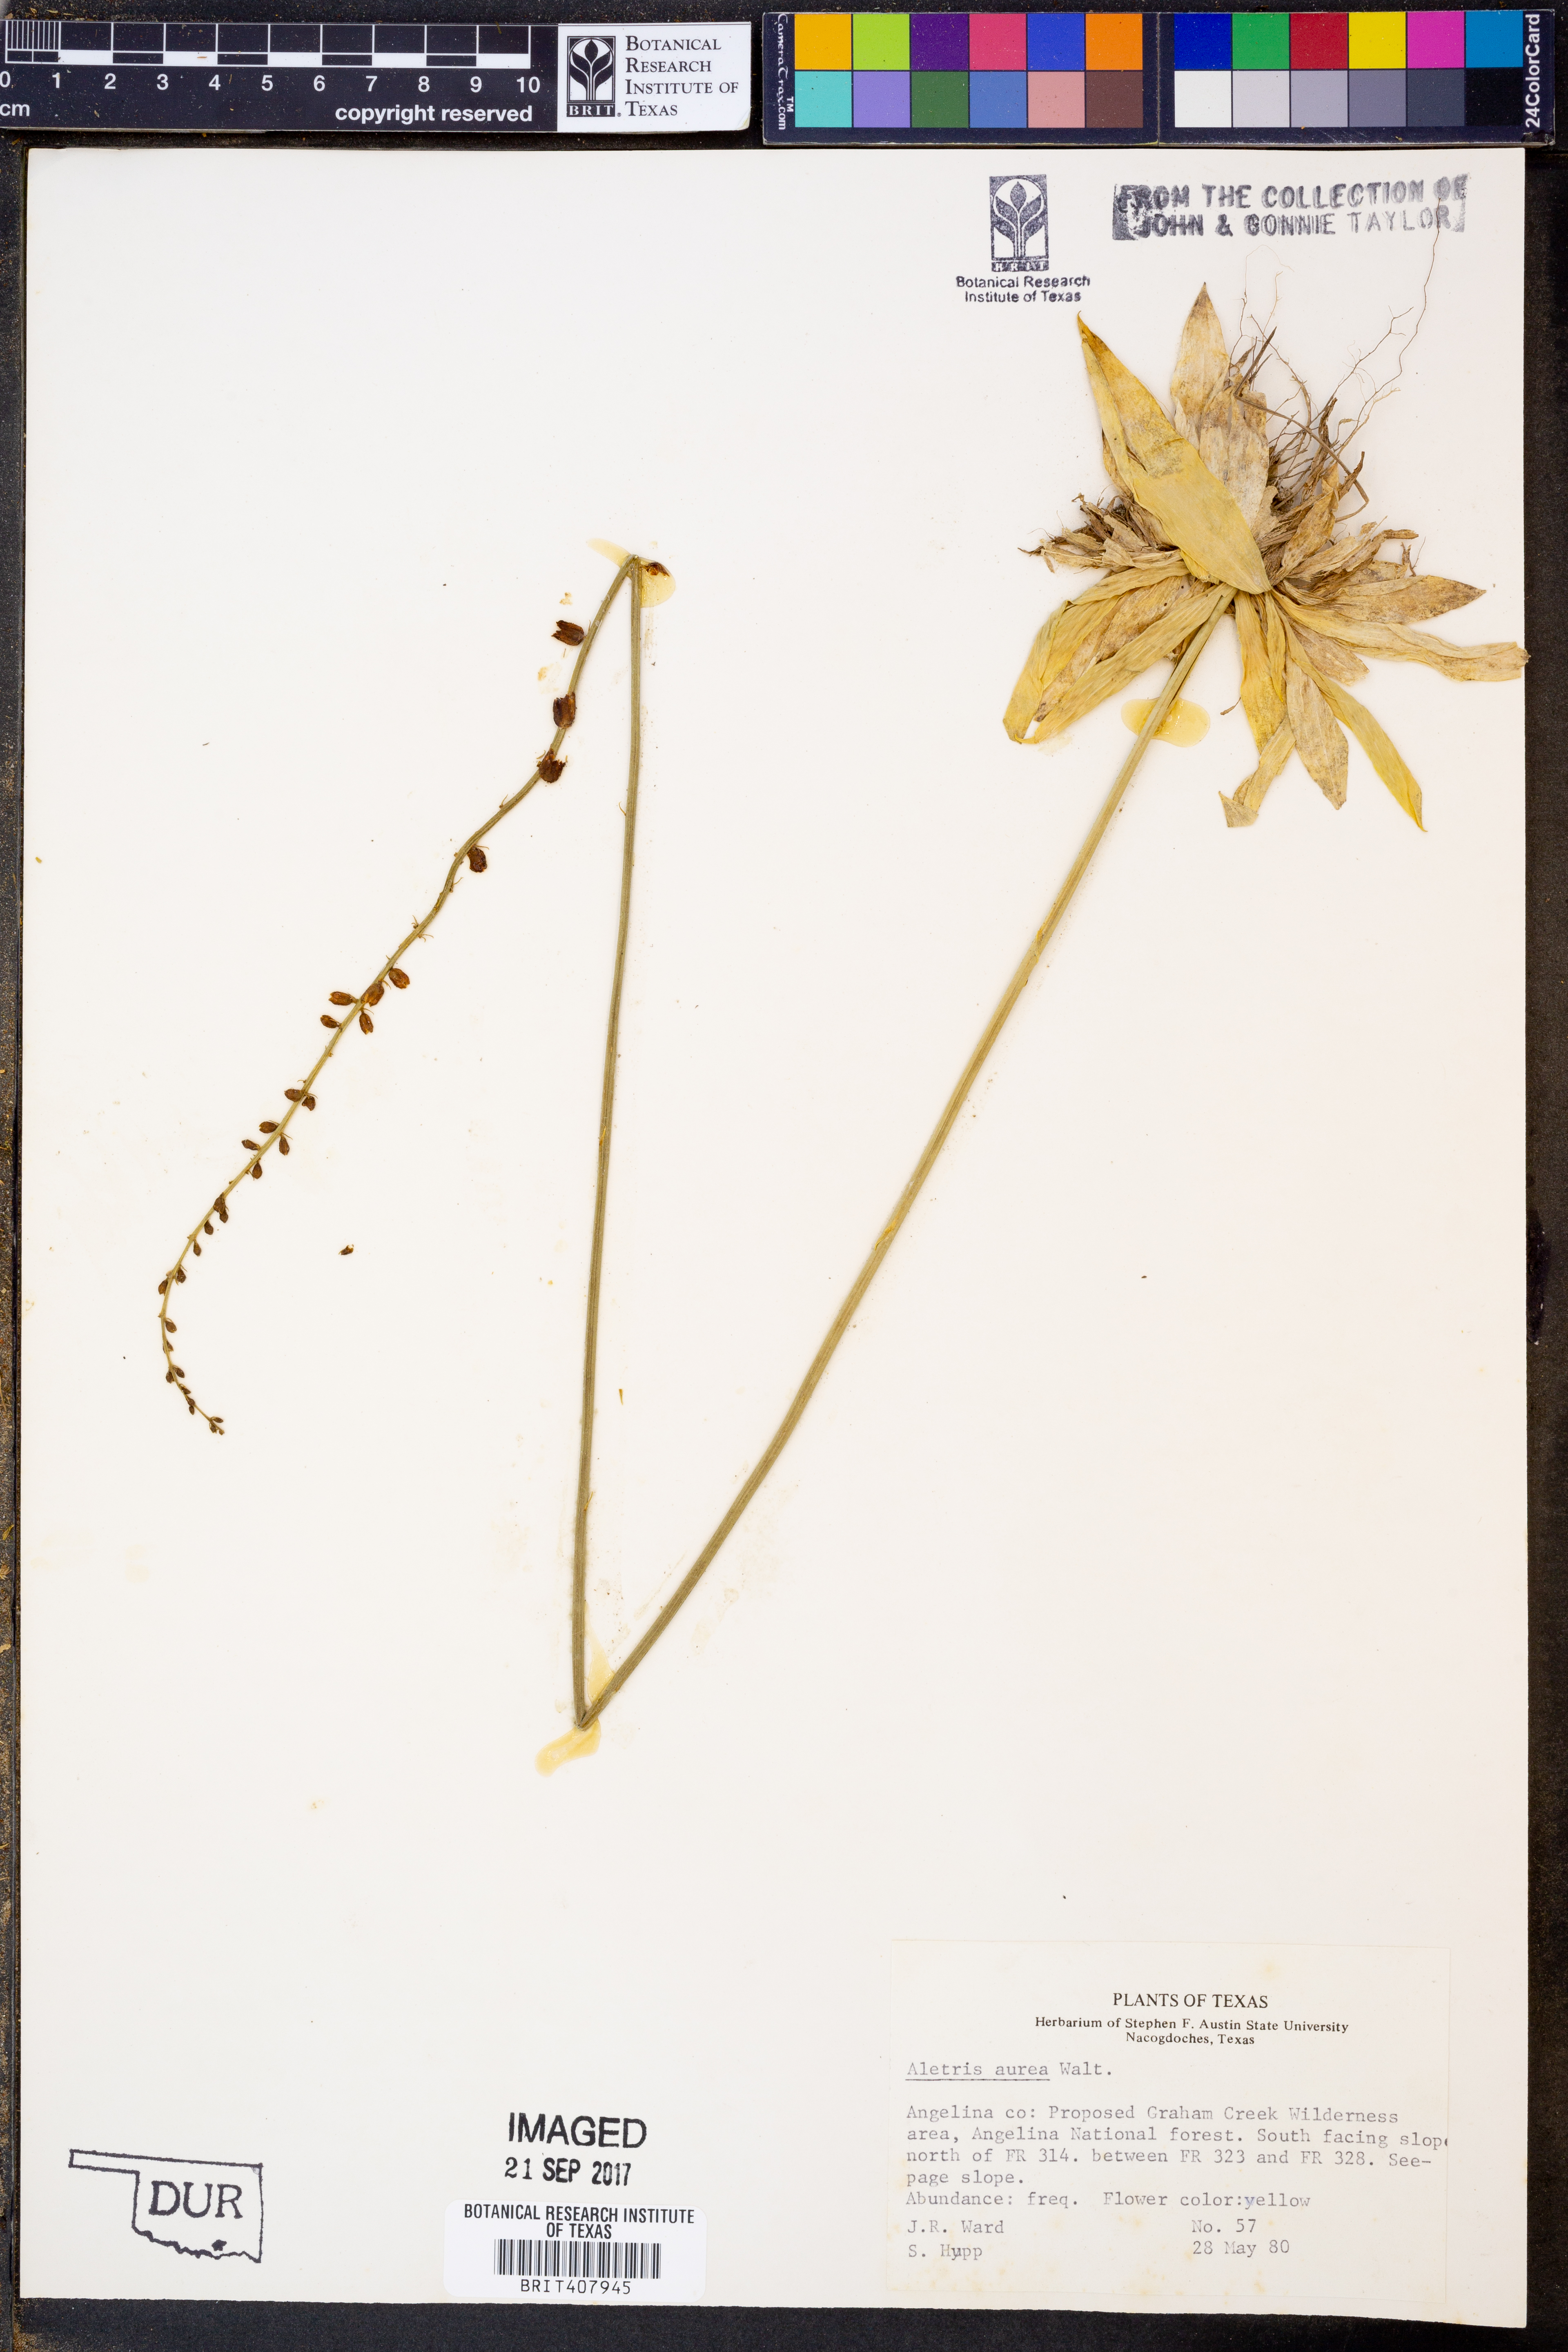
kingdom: Plantae
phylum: Tracheophyta
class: Liliopsida
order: Dioscoreales
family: Nartheciaceae
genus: Aletris
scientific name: Aletris aurea
